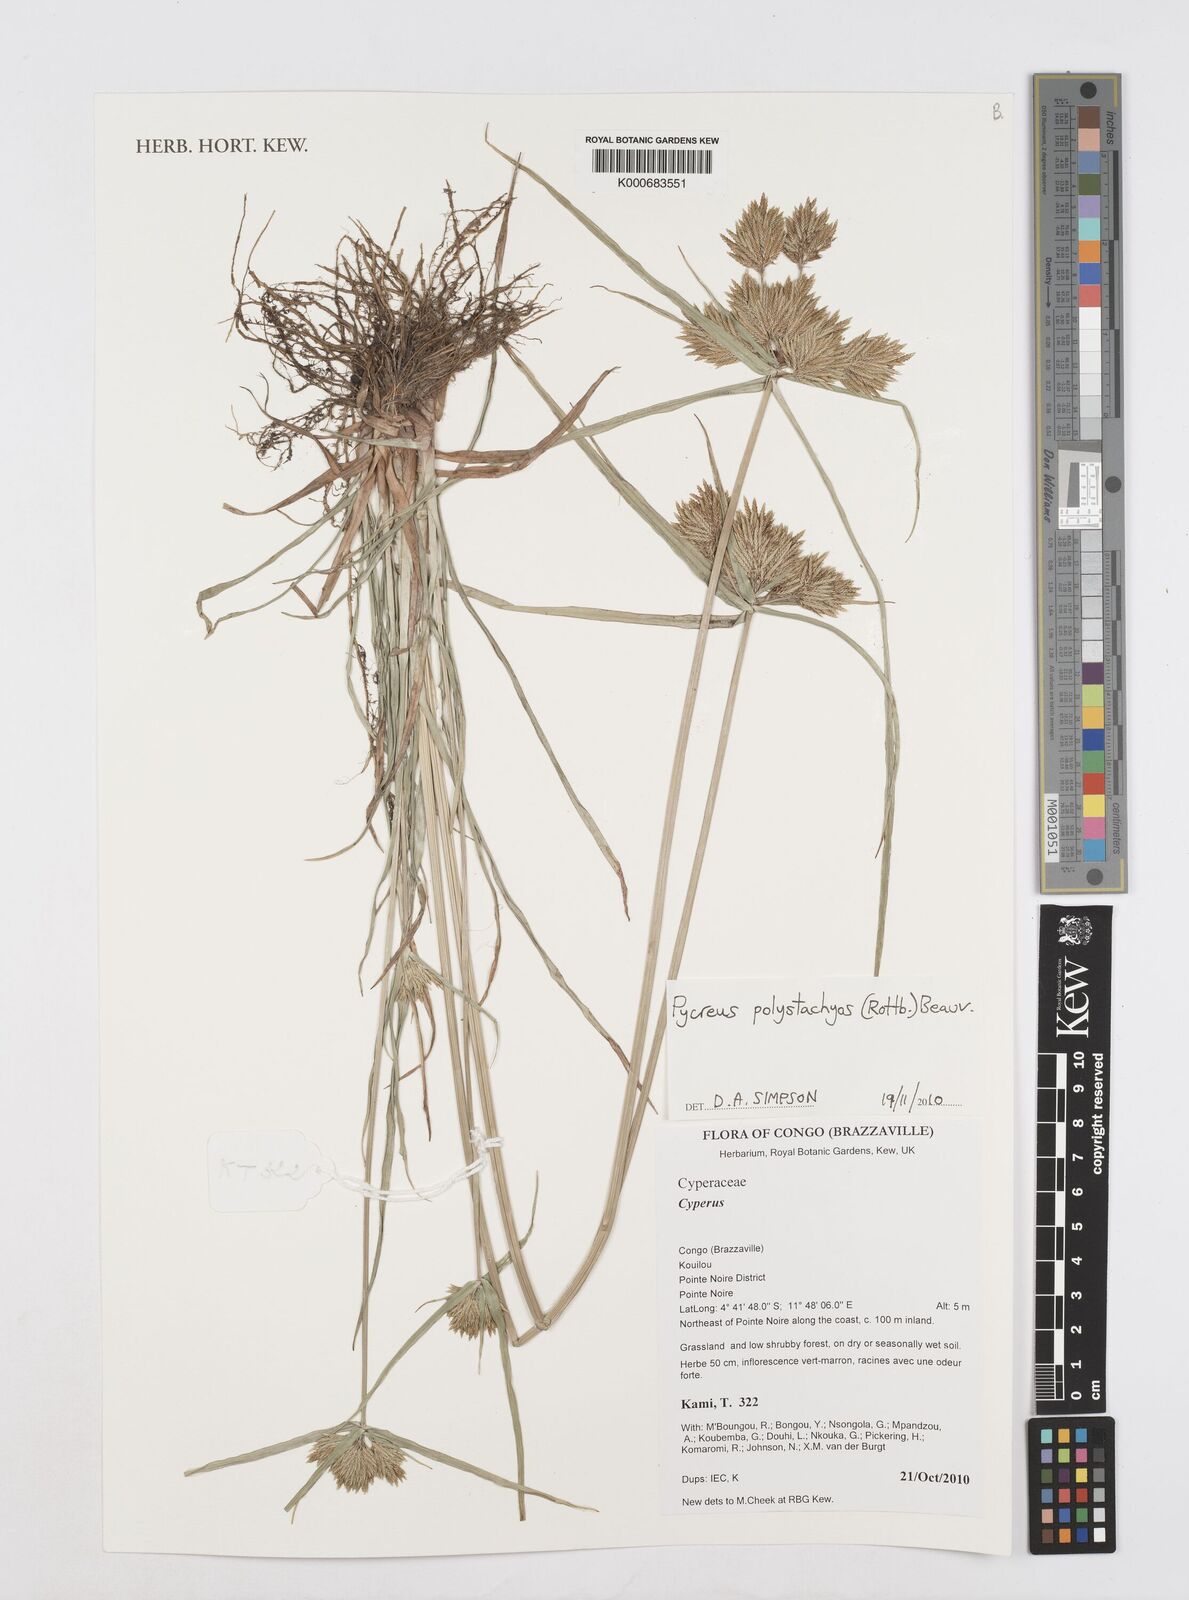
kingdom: Plantae
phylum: Tracheophyta
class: Liliopsida
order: Poales
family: Cyperaceae
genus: Cyperus
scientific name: Cyperus polystachyos
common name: Bunchy flat sedge
